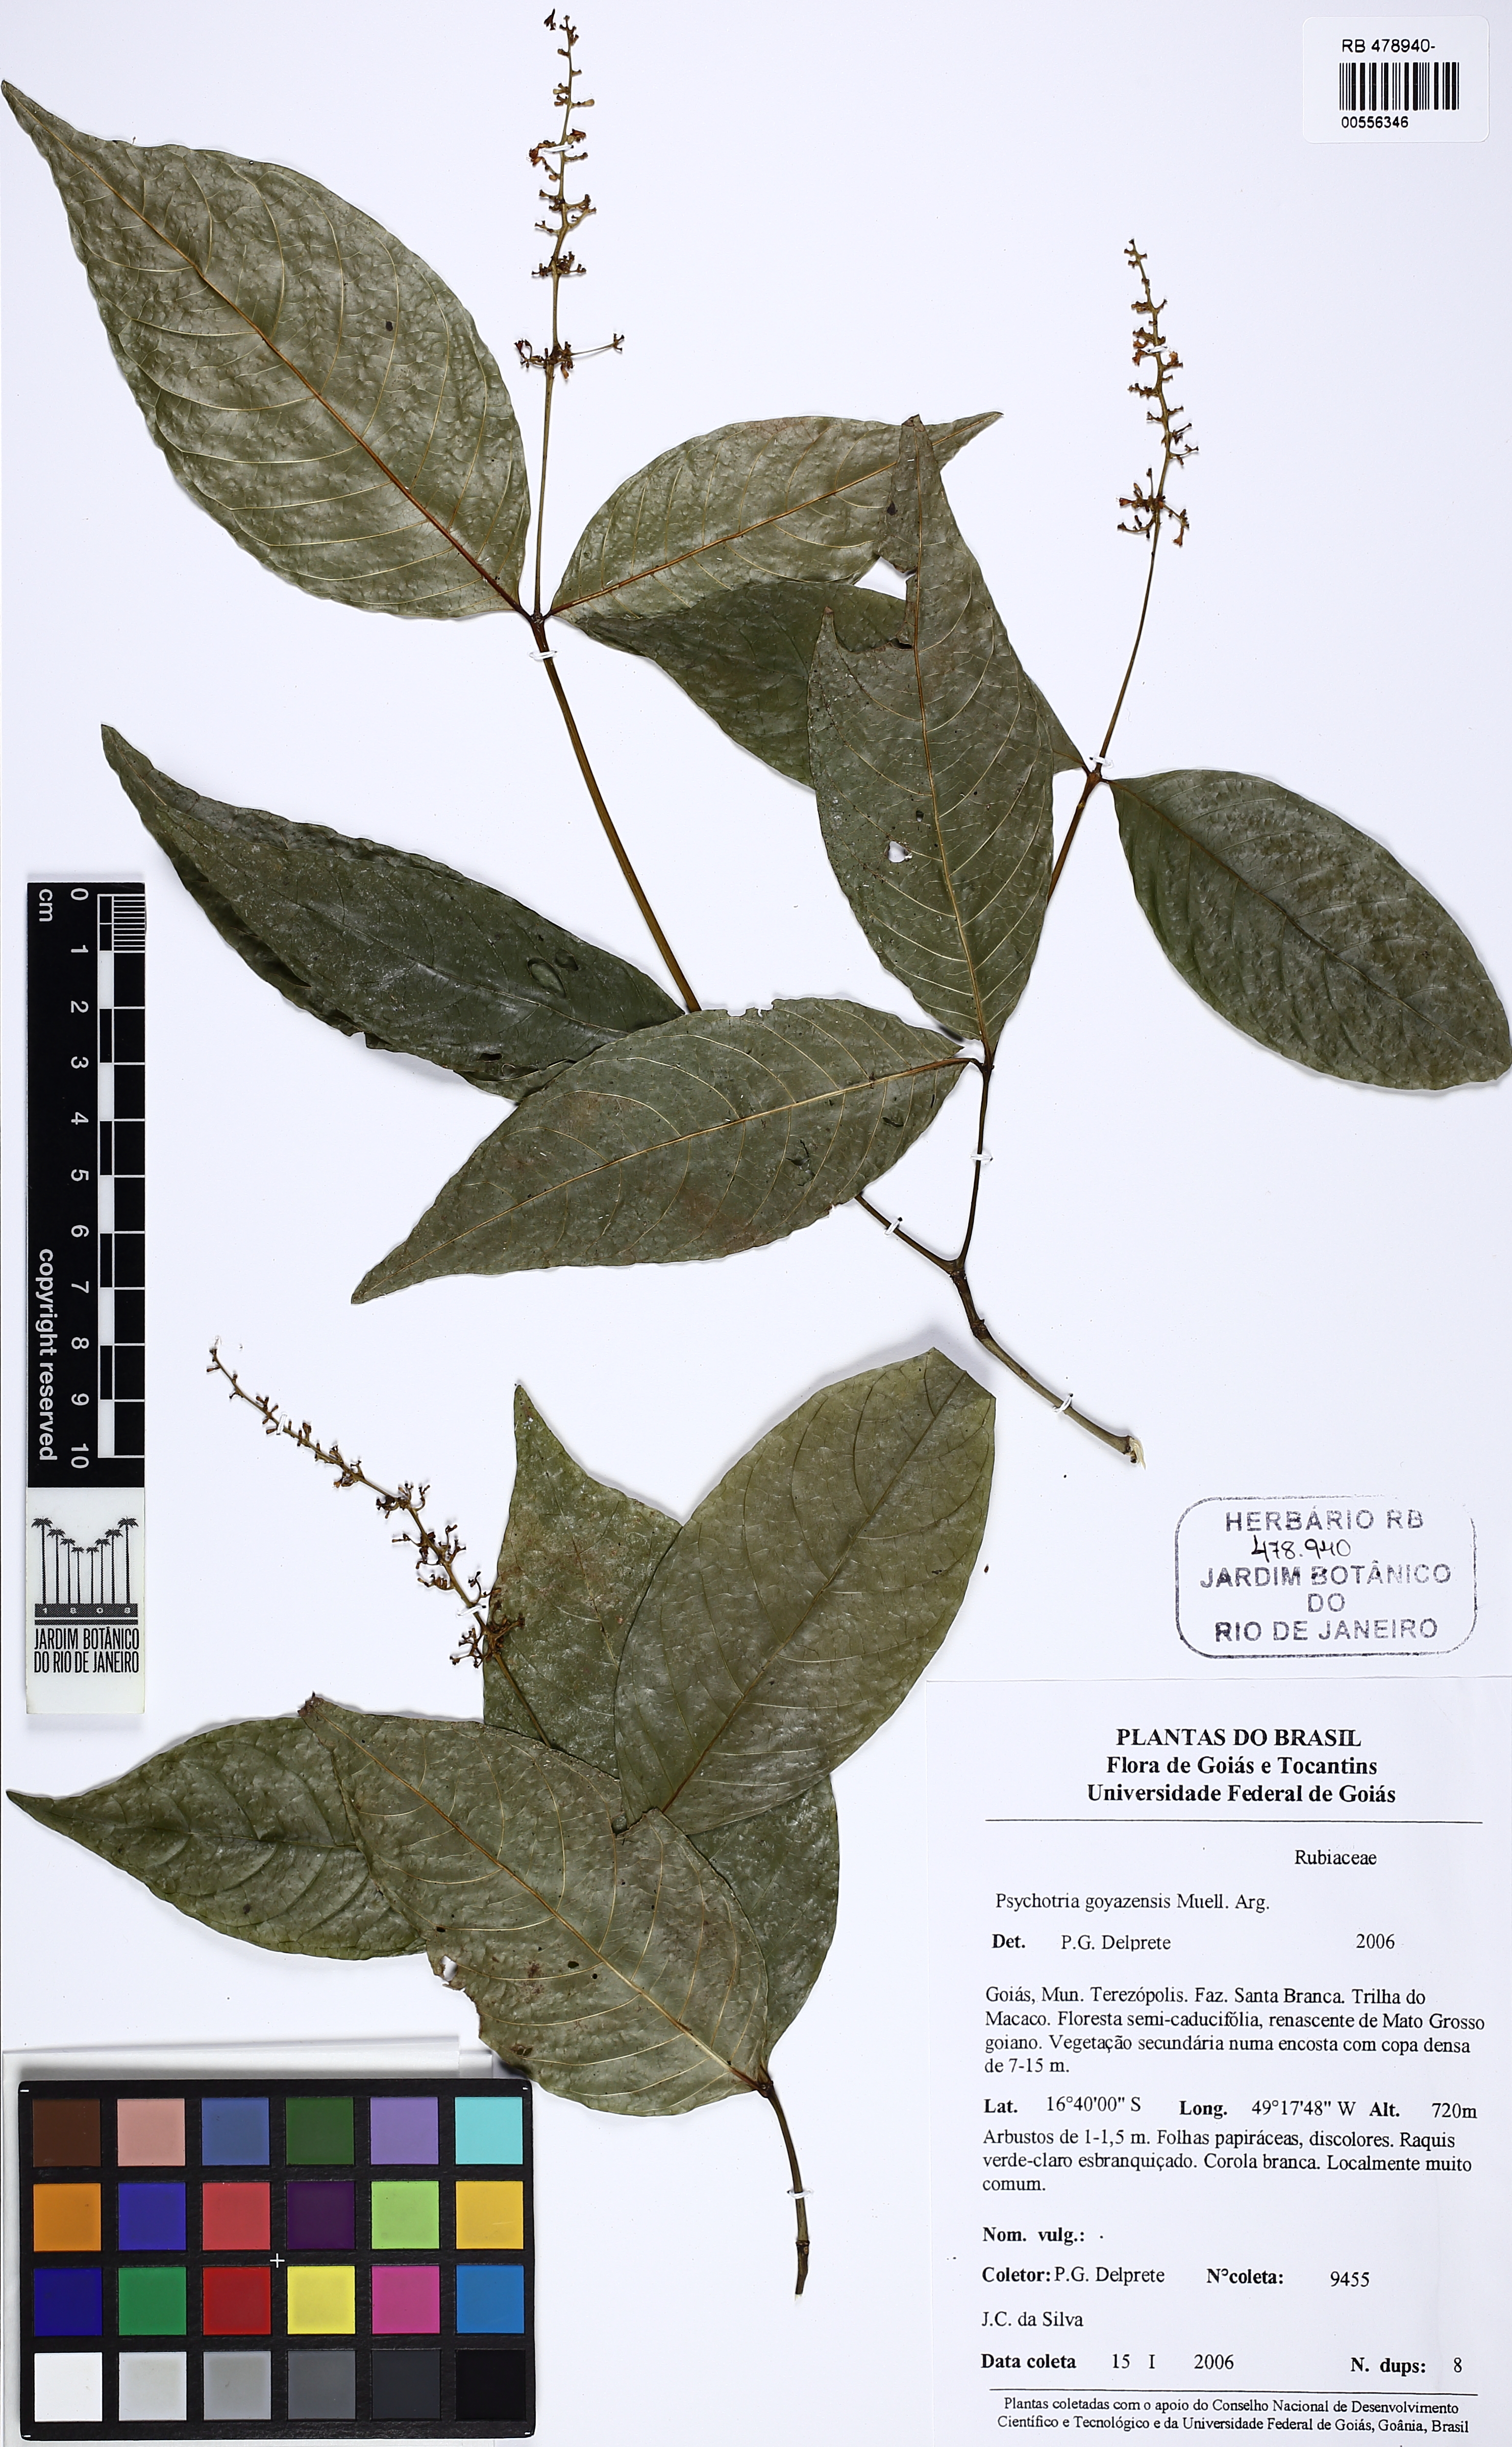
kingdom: Plantae
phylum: Tracheophyta
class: Magnoliopsida
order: Gentianales
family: Rubiaceae
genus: Palicourea
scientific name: Palicourea goyazensis
